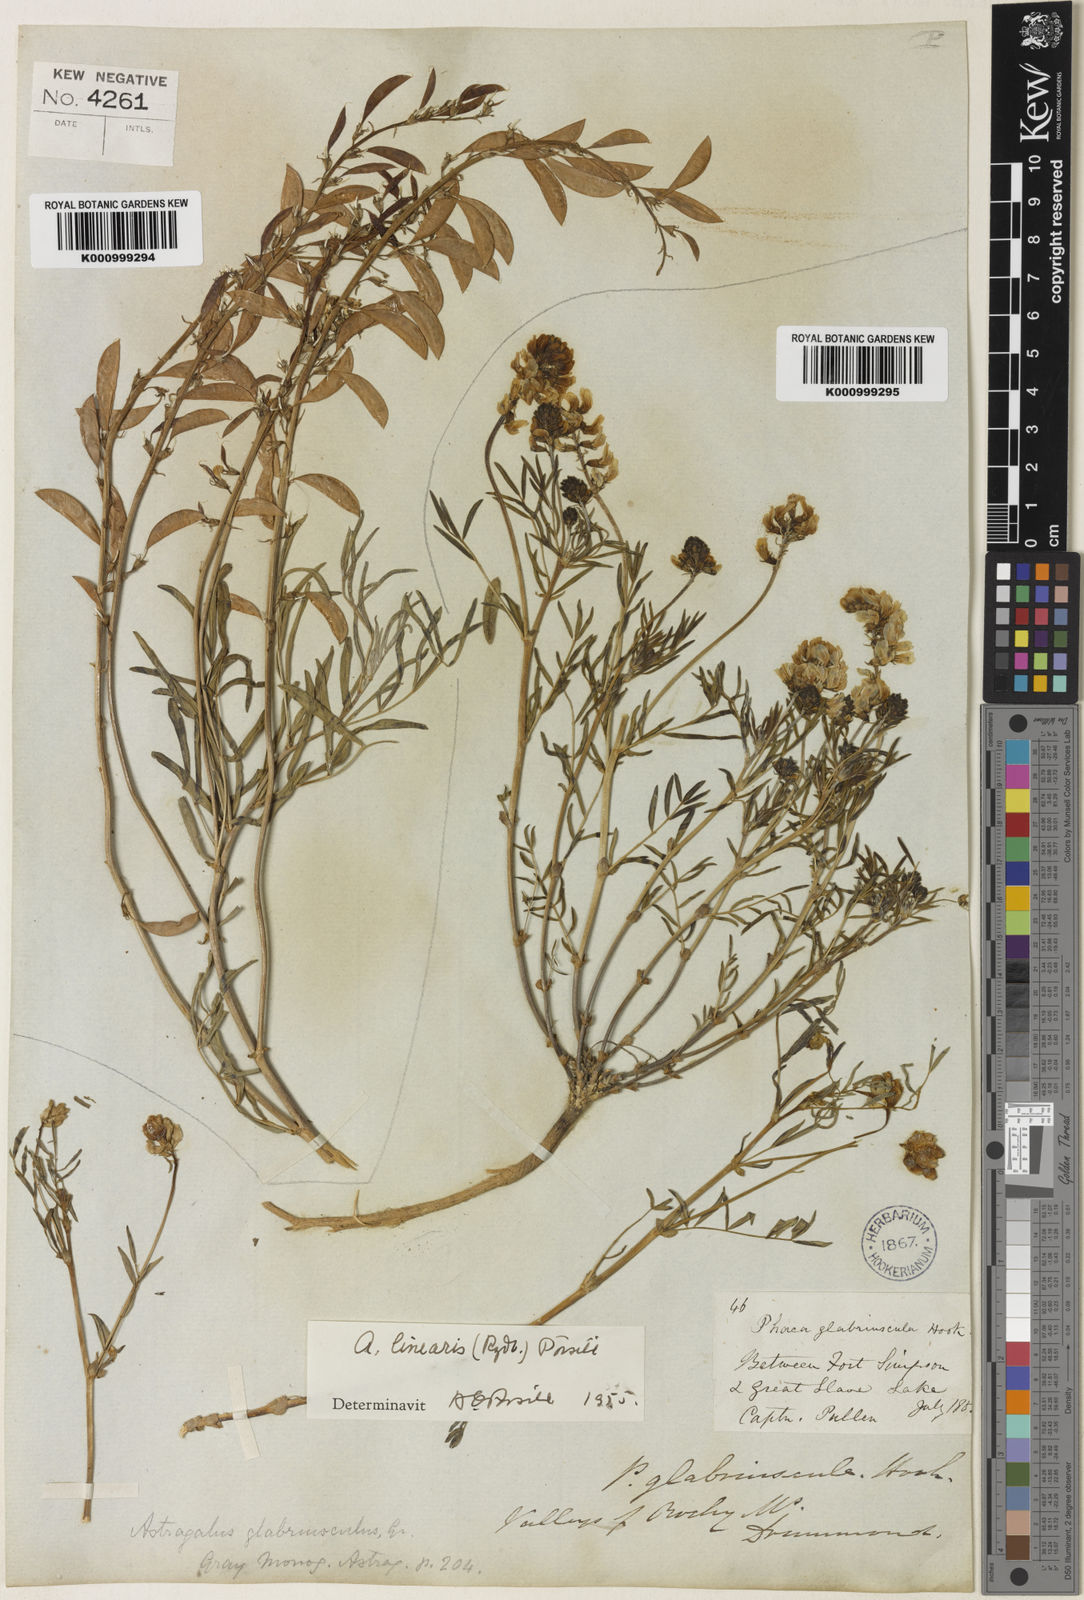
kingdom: Plantae
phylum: Tracheophyta
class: Magnoliopsida
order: Fabales
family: Fabaceae
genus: Astragalus
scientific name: Astragalus aboriginorum
